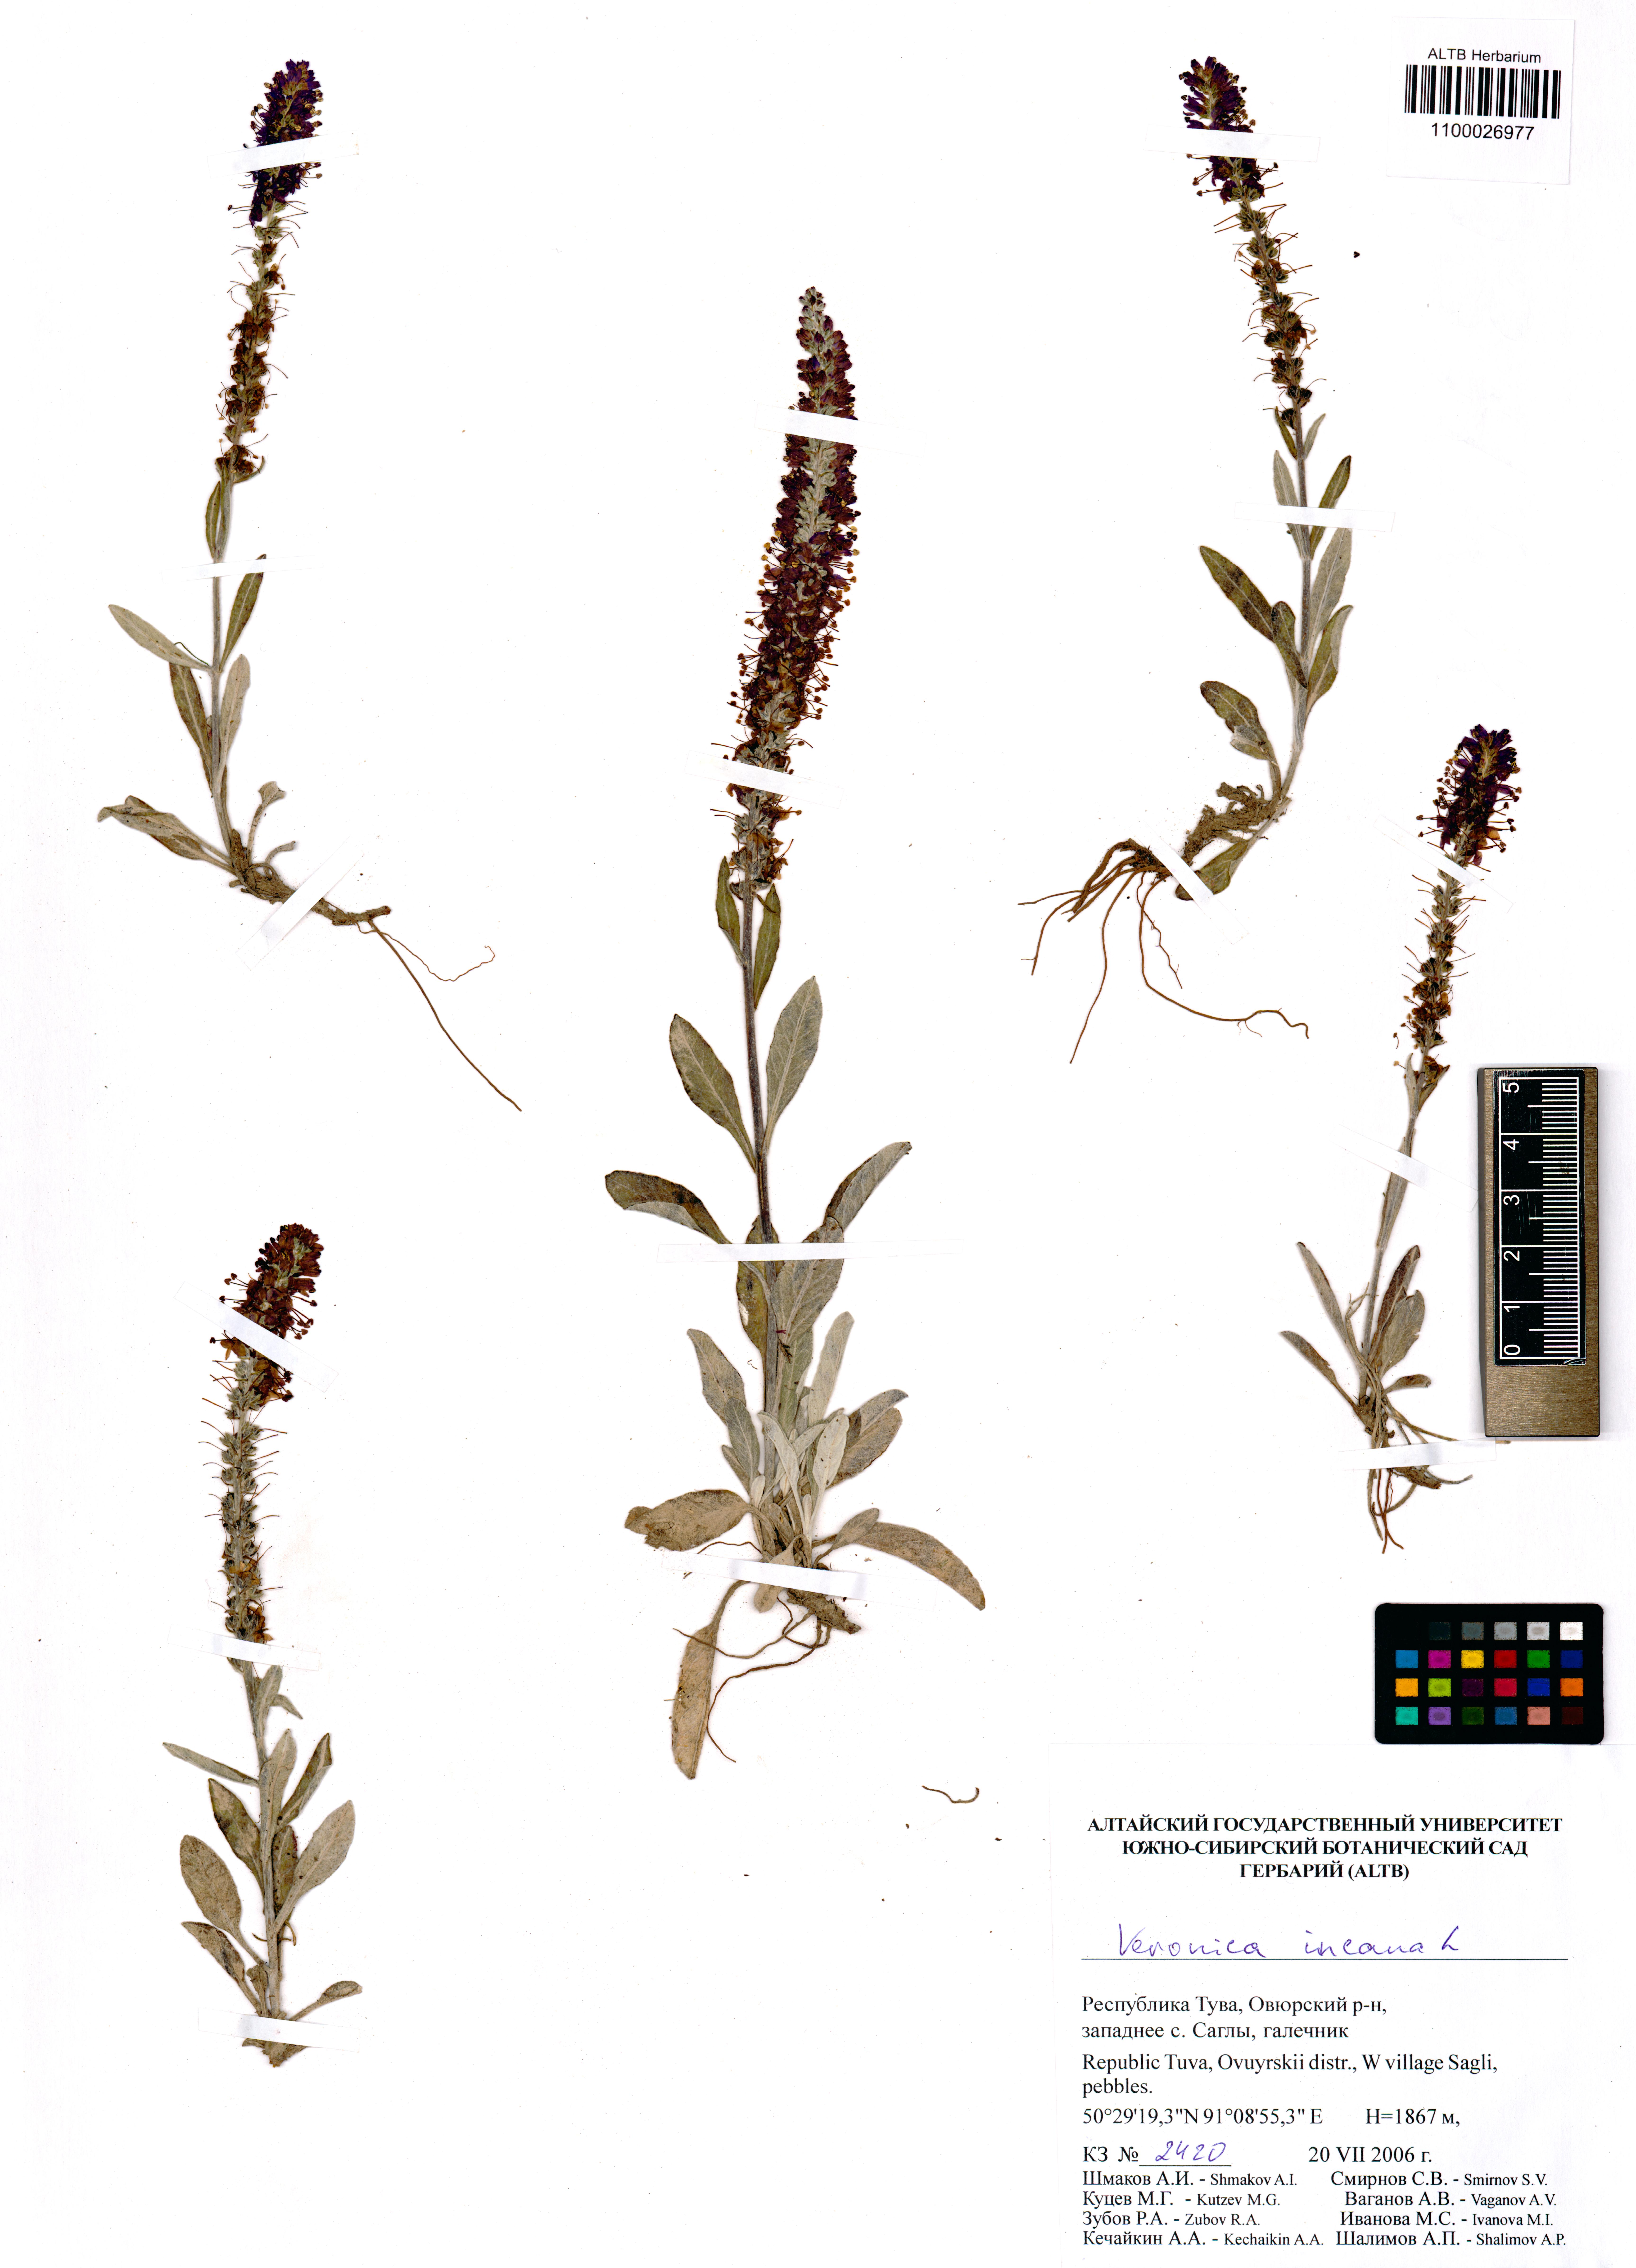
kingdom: Plantae
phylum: Tracheophyta
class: Magnoliopsida
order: Lamiales
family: Plantaginaceae
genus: Veronica
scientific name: Veronica incana
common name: Silver speedwell
